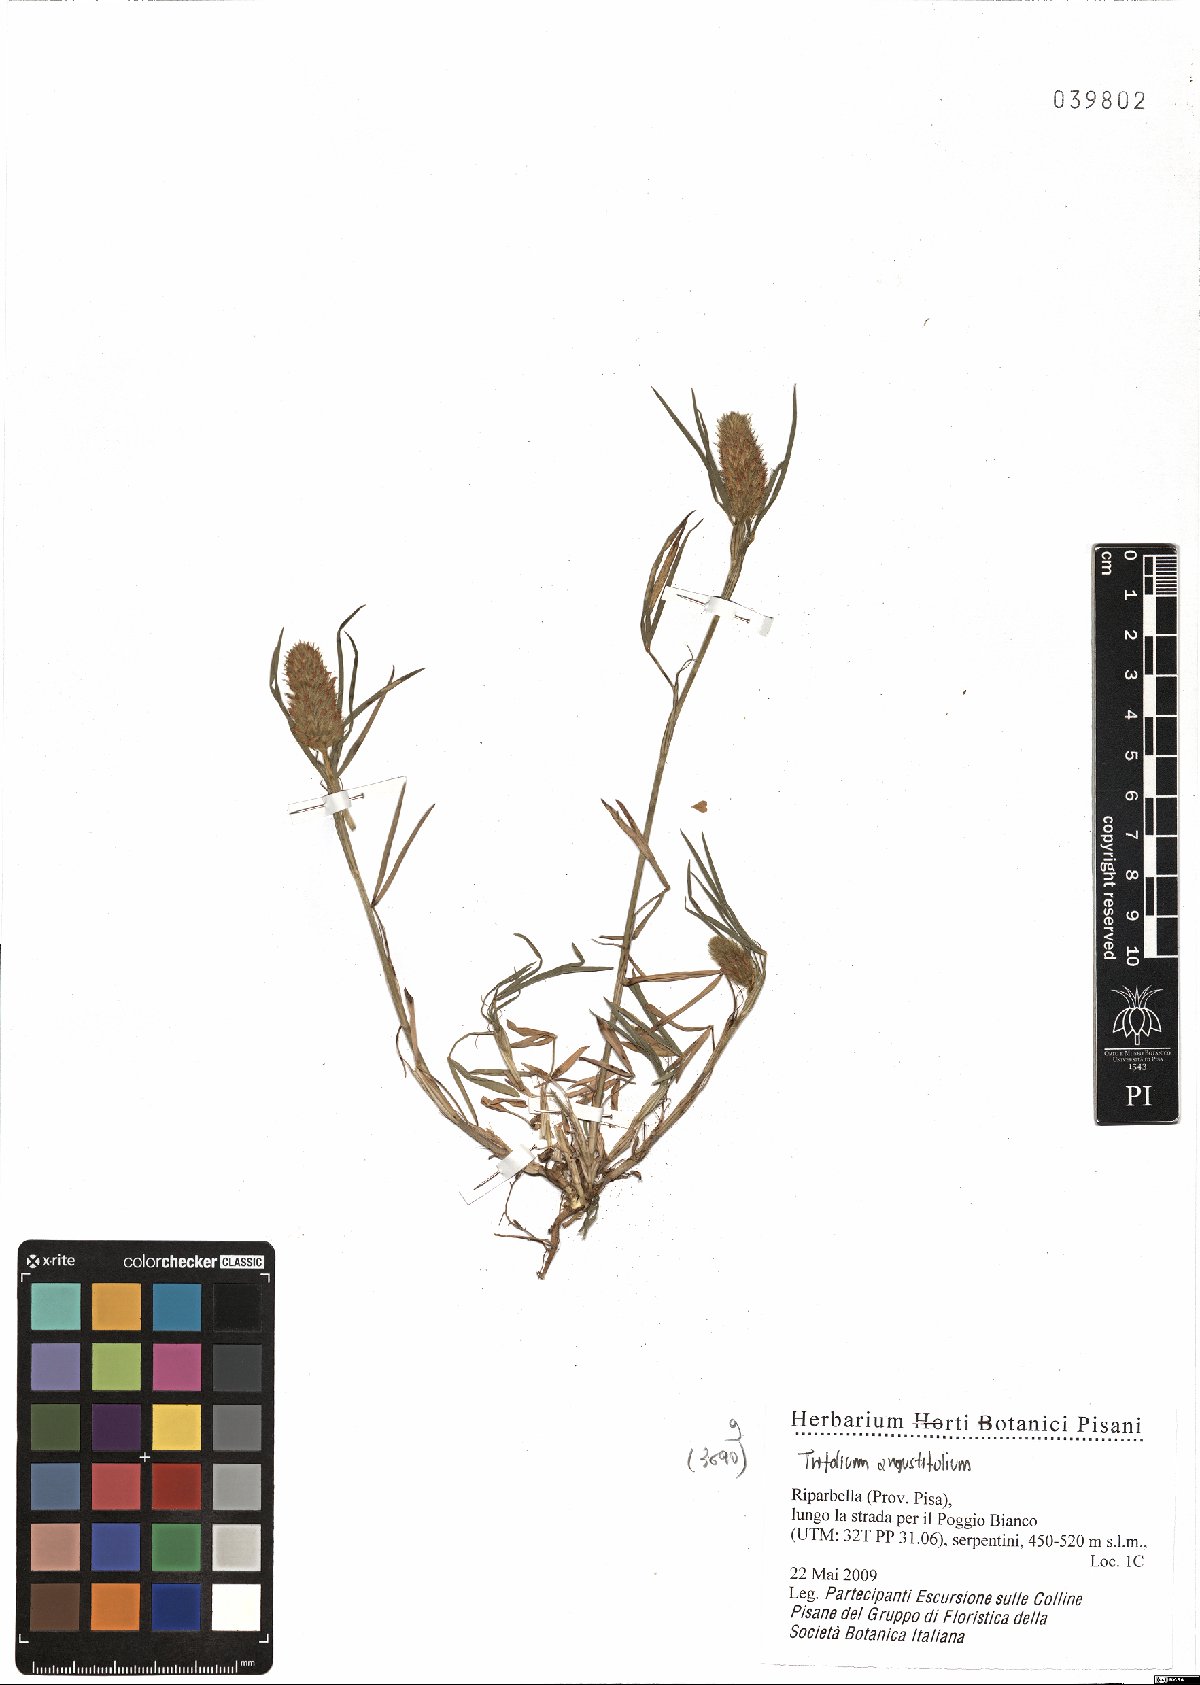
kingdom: Plantae
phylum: Tracheophyta
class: Magnoliopsida
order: Fabales
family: Fabaceae
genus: Trifolium
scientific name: Trifolium angustifolium
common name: Narrow clover
